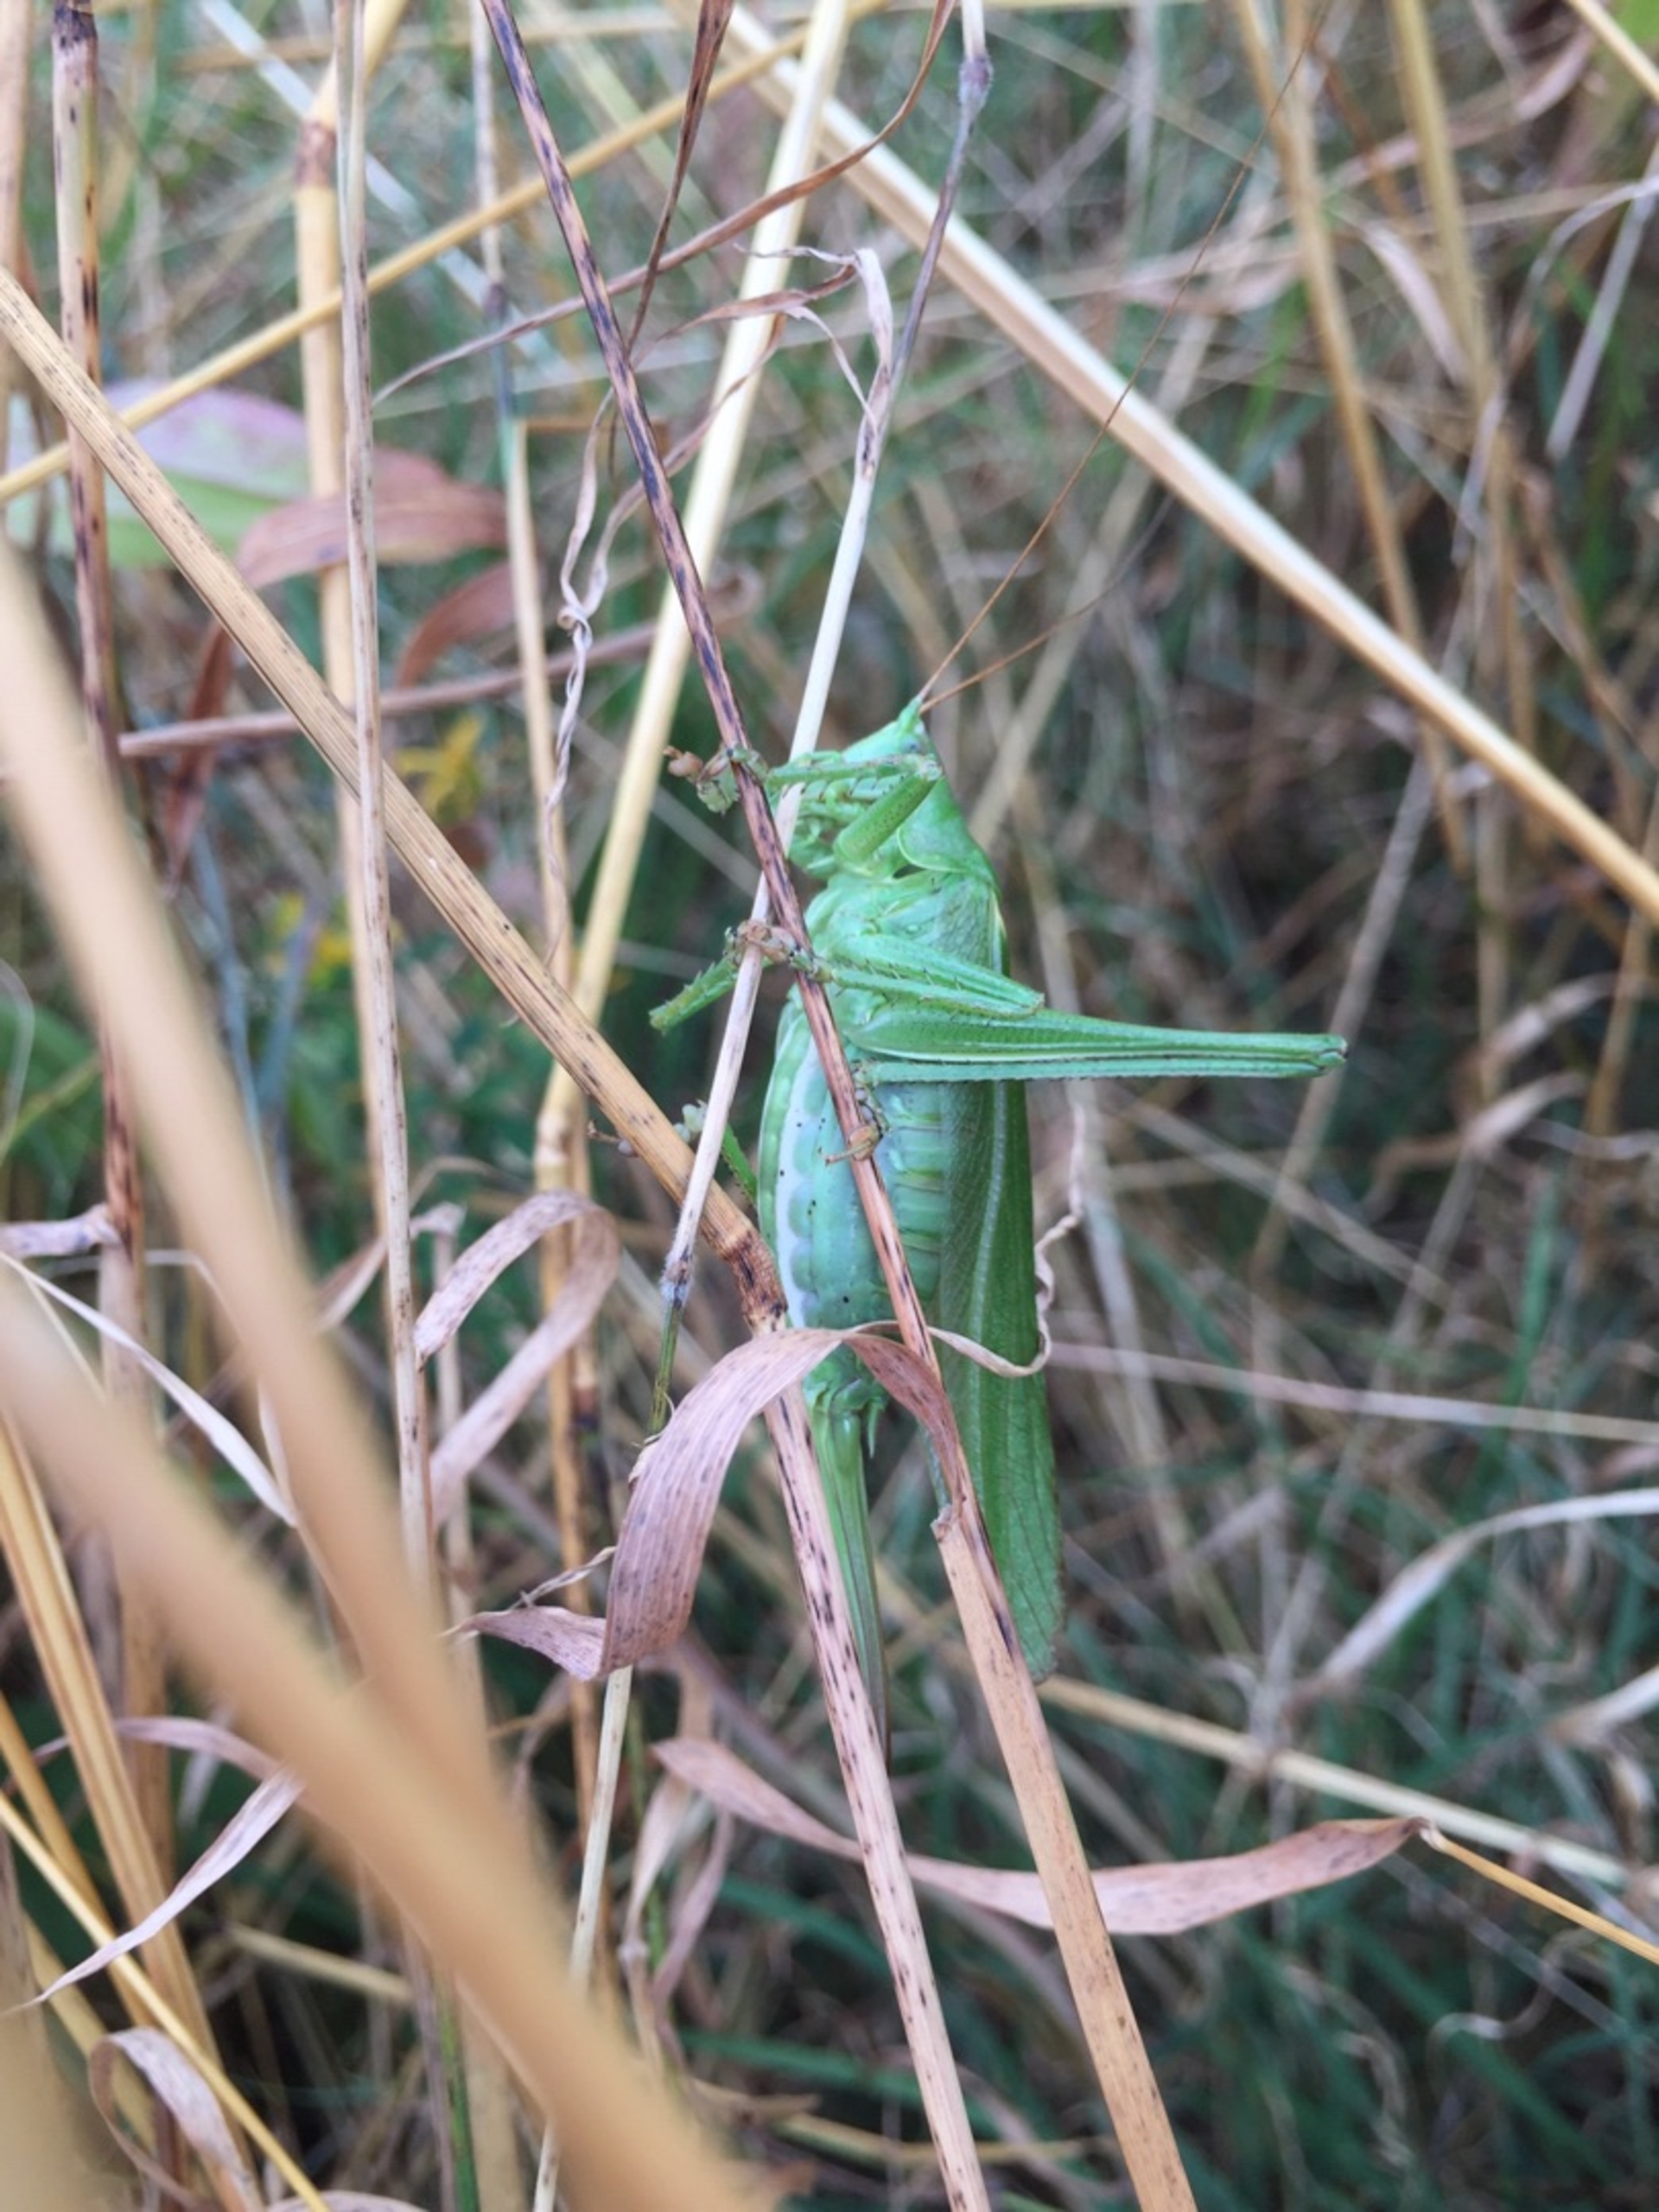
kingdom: Animalia
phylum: Arthropoda
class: Insecta
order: Orthoptera
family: Tettigoniidae
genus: Tettigonia
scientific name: Tettigonia viridissima
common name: Stor grøn løvgræshoppe
